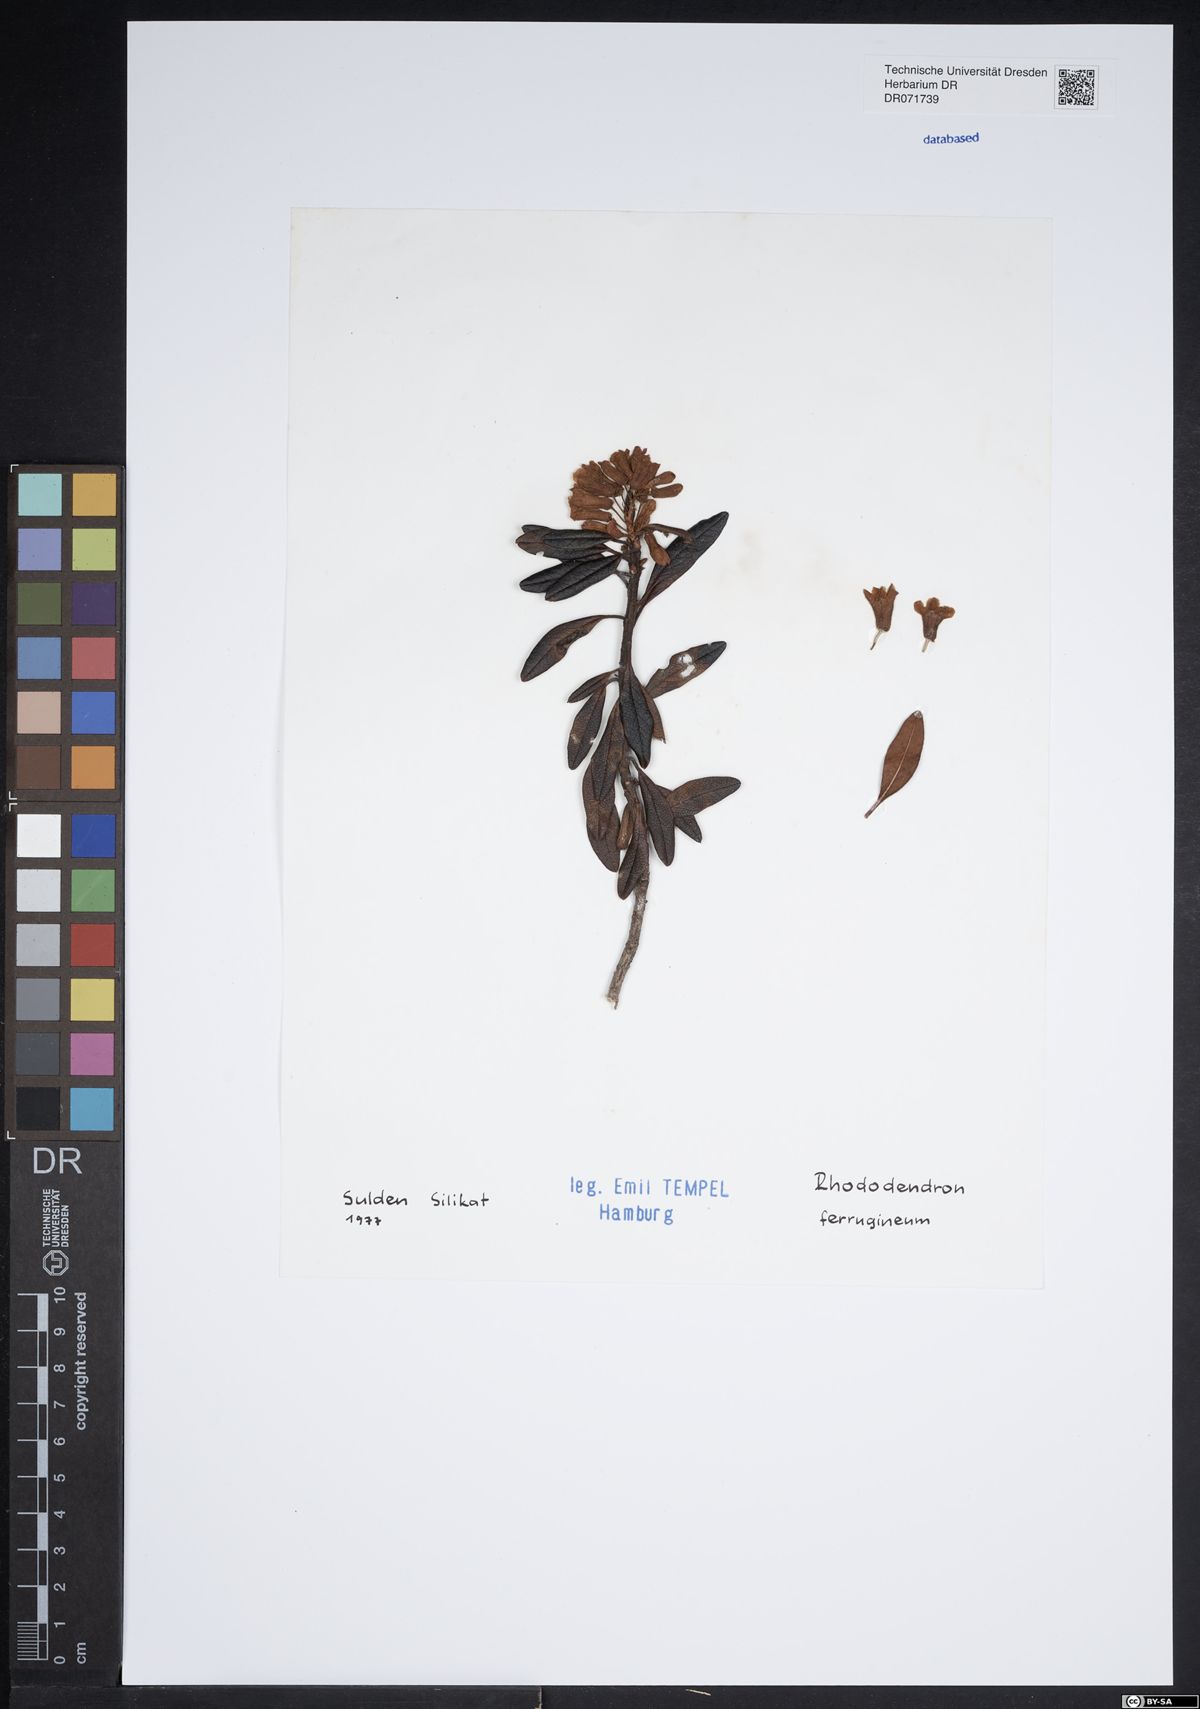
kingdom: Plantae
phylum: Tracheophyta
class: Magnoliopsida
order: Ericales
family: Ericaceae
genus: Rhododendron
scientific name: Rhododendron ferrugineum
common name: Alpenrose
